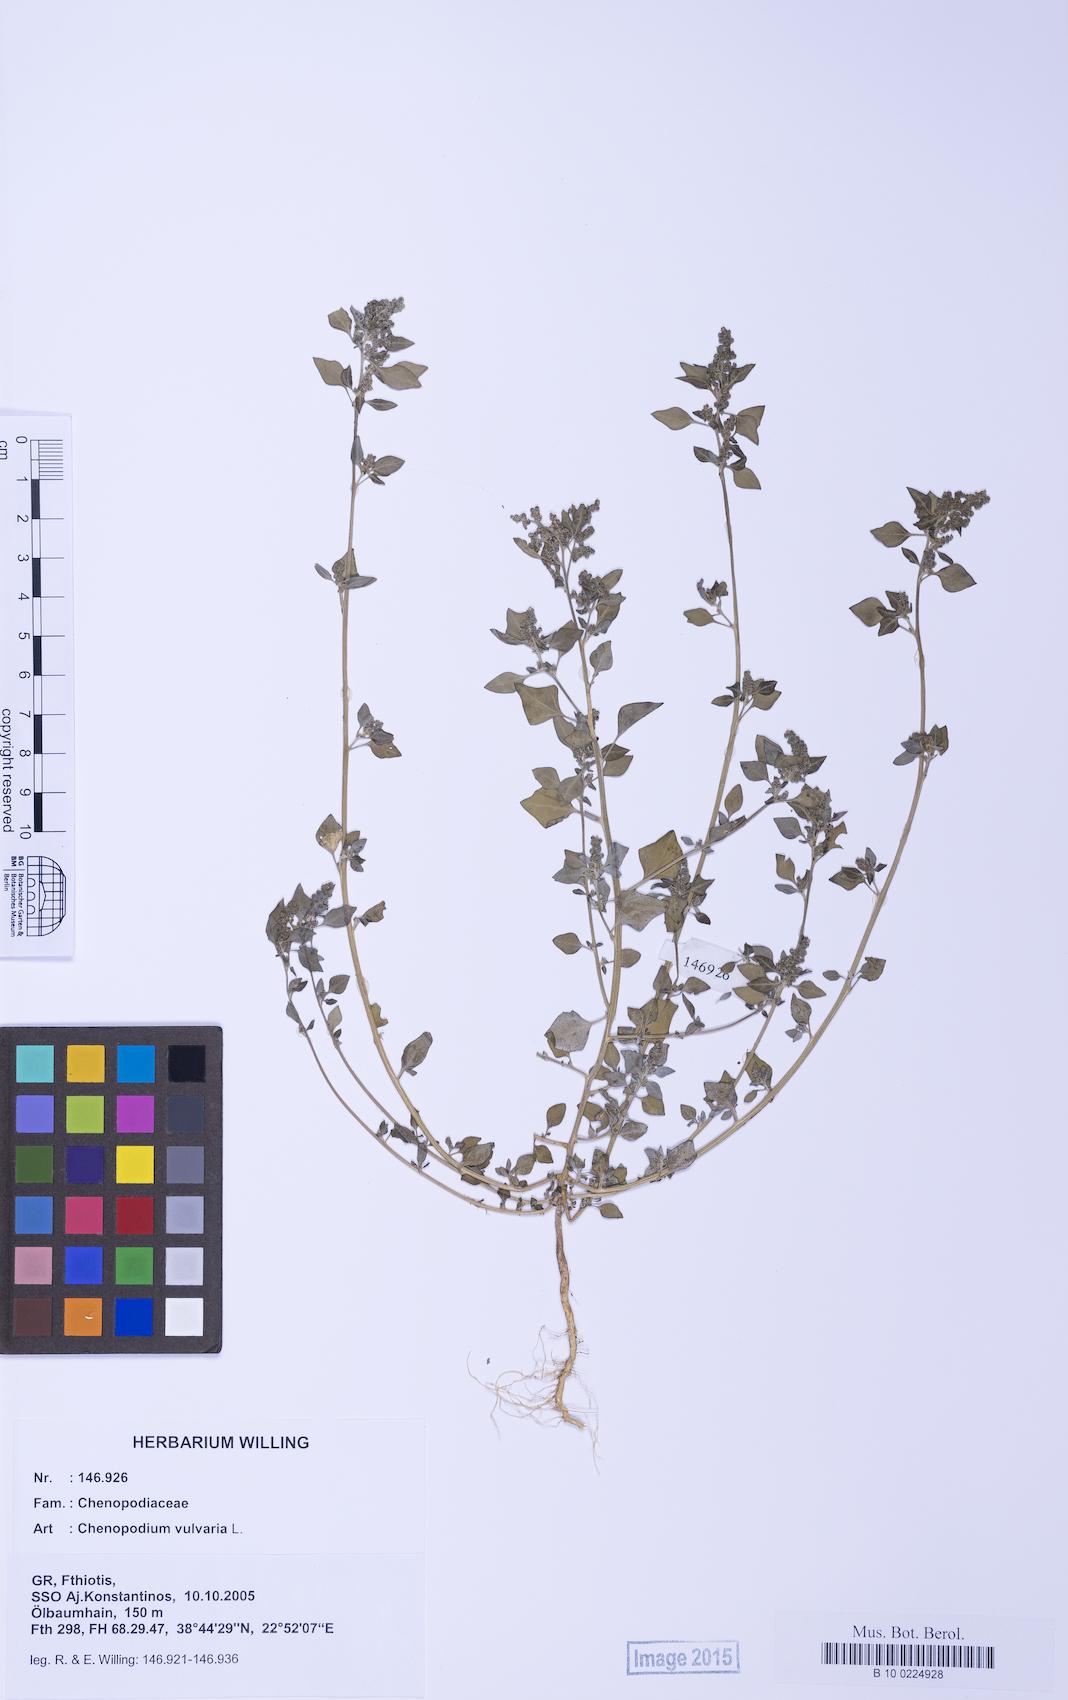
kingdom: Plantae
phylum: Tracheophyta
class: Magnoliopsida
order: Caryophyllales
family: Amaranthaceae
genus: Chenopodium
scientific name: Chenopodium vulvaria
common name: Stinking goosefoot
